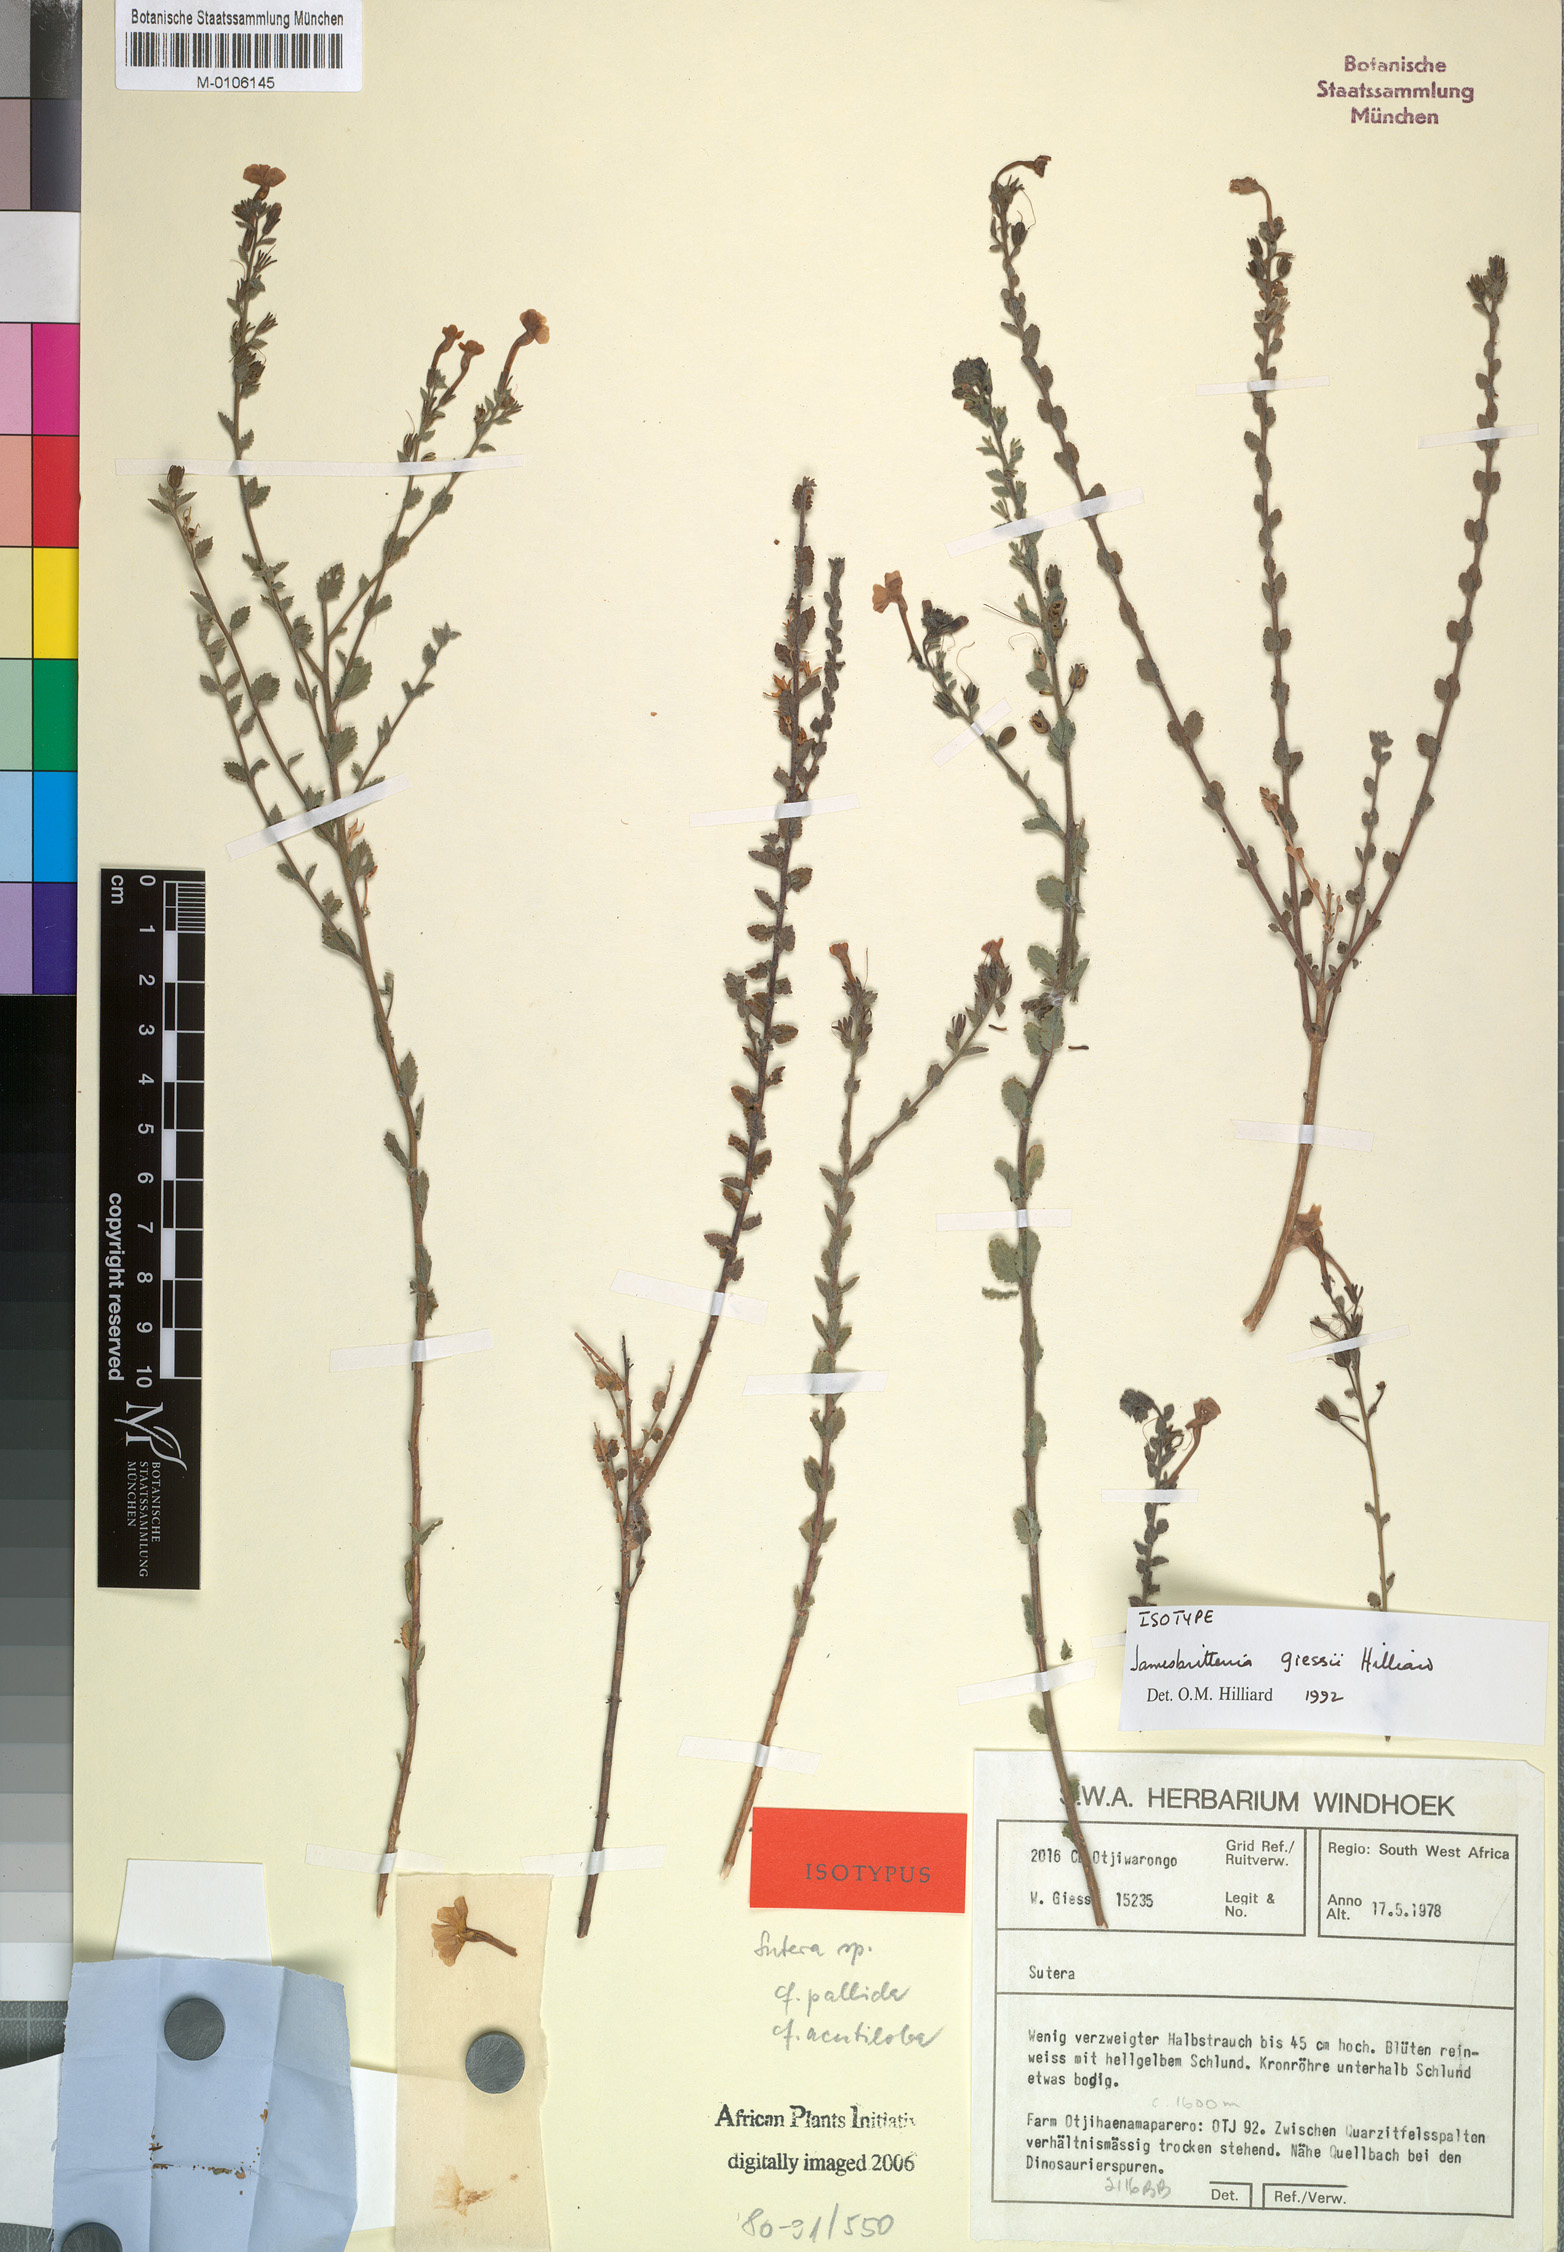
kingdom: Plantae
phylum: Tracheophyta
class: Magnoliopsida
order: Lamiales
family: Scrophulariaceae
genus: Jamesbrittenia
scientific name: Jamesbrittenia giessii
